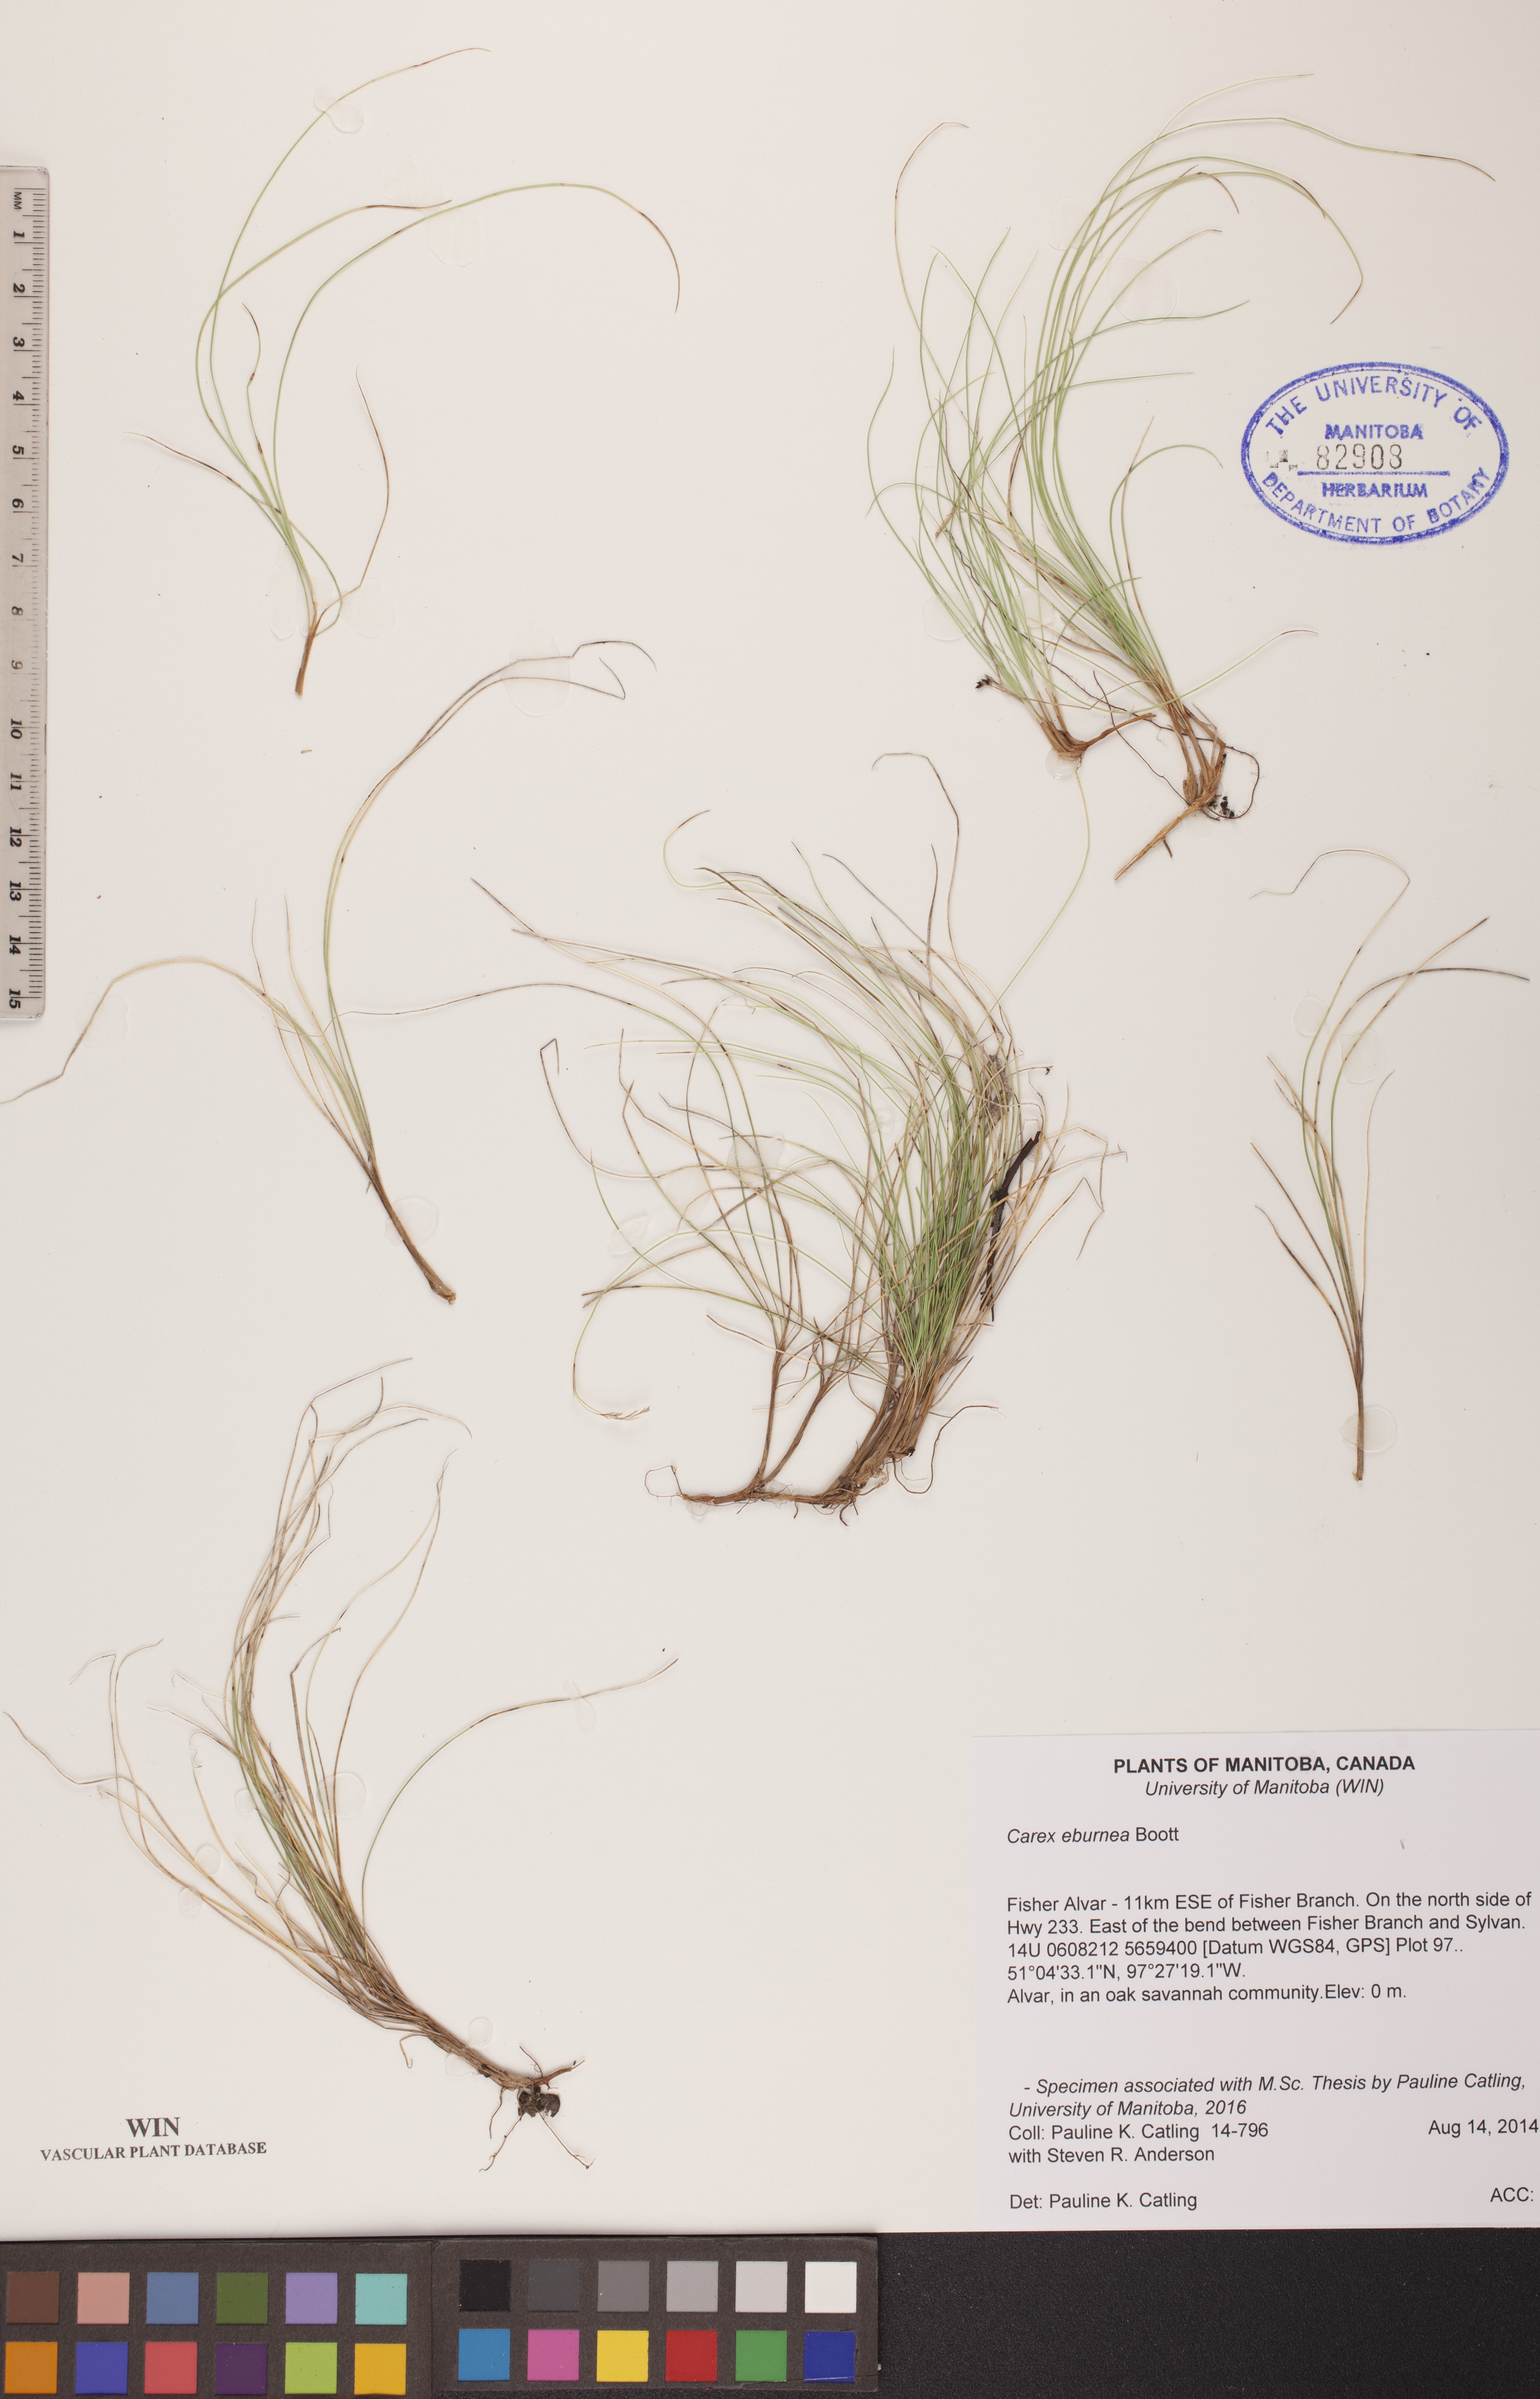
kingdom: Plantae
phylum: Tracheophyta
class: Liliopsida
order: Poales
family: Cyperaceae
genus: Carex
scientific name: Carex eburnea
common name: Bristle-leaved sedge
